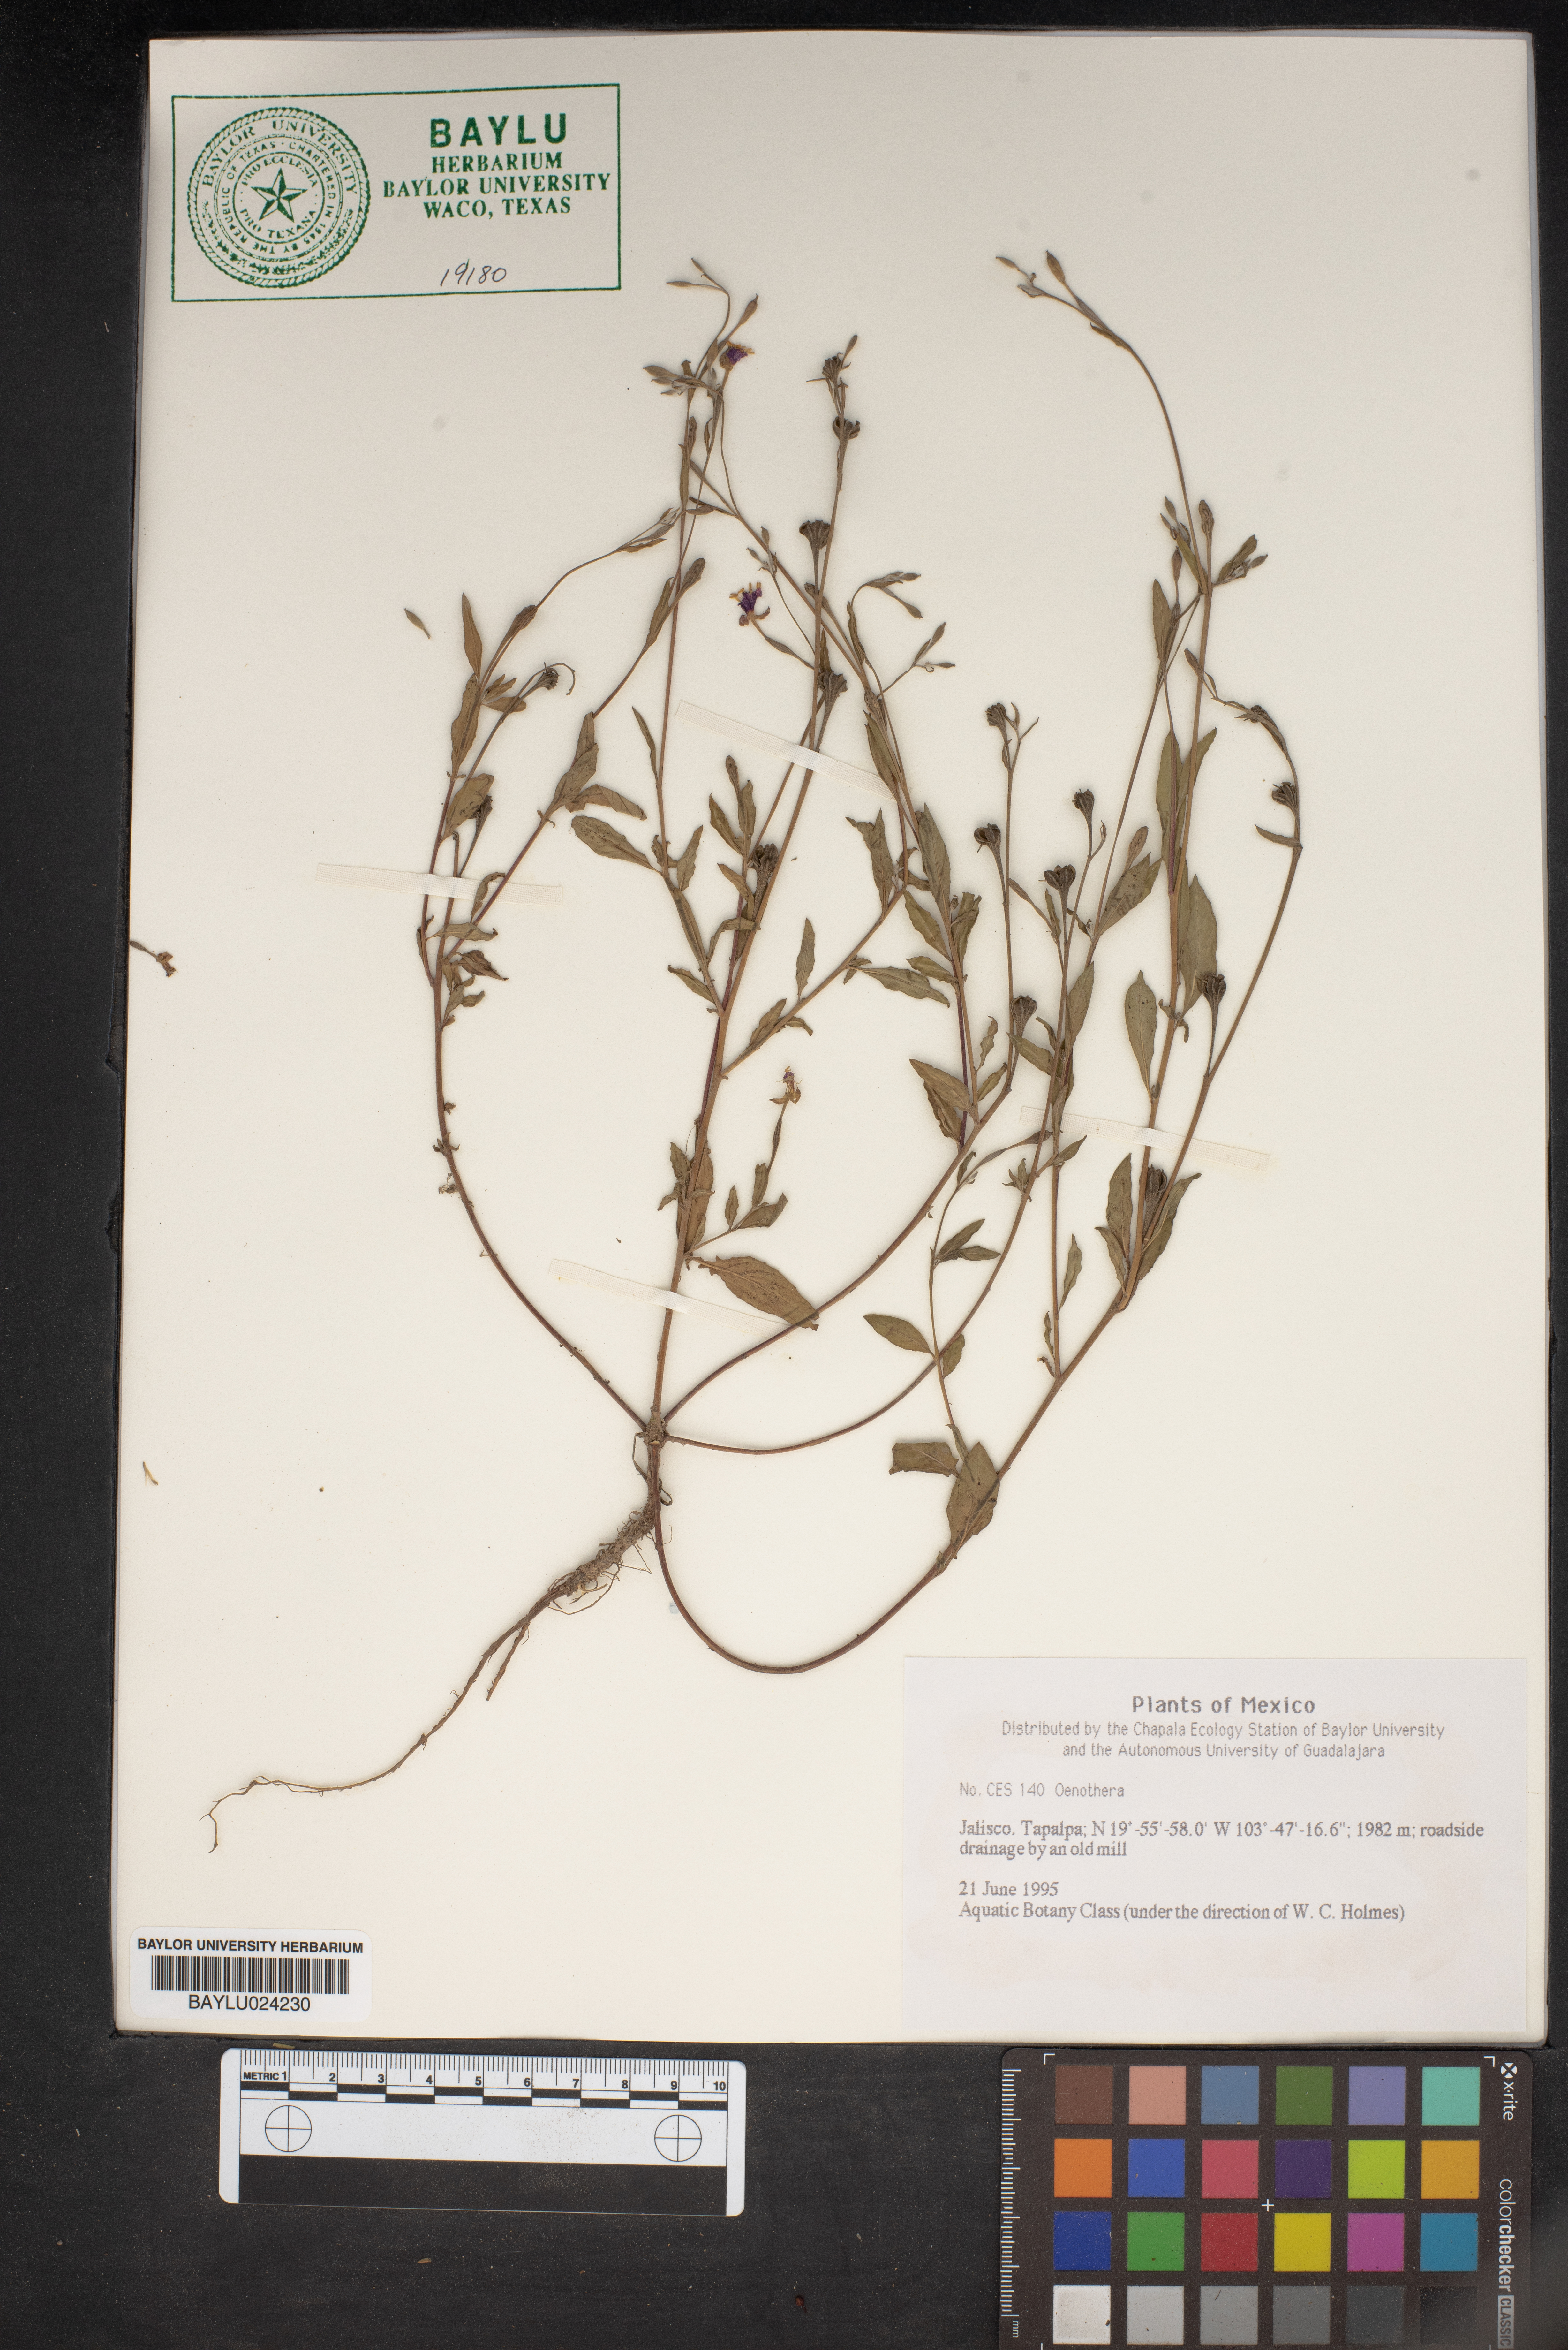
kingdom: Plantae
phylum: Tracheophyta
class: Magnoliopsida
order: Myrtales
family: Onagraceae
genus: Oenothera
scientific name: Oenothera
